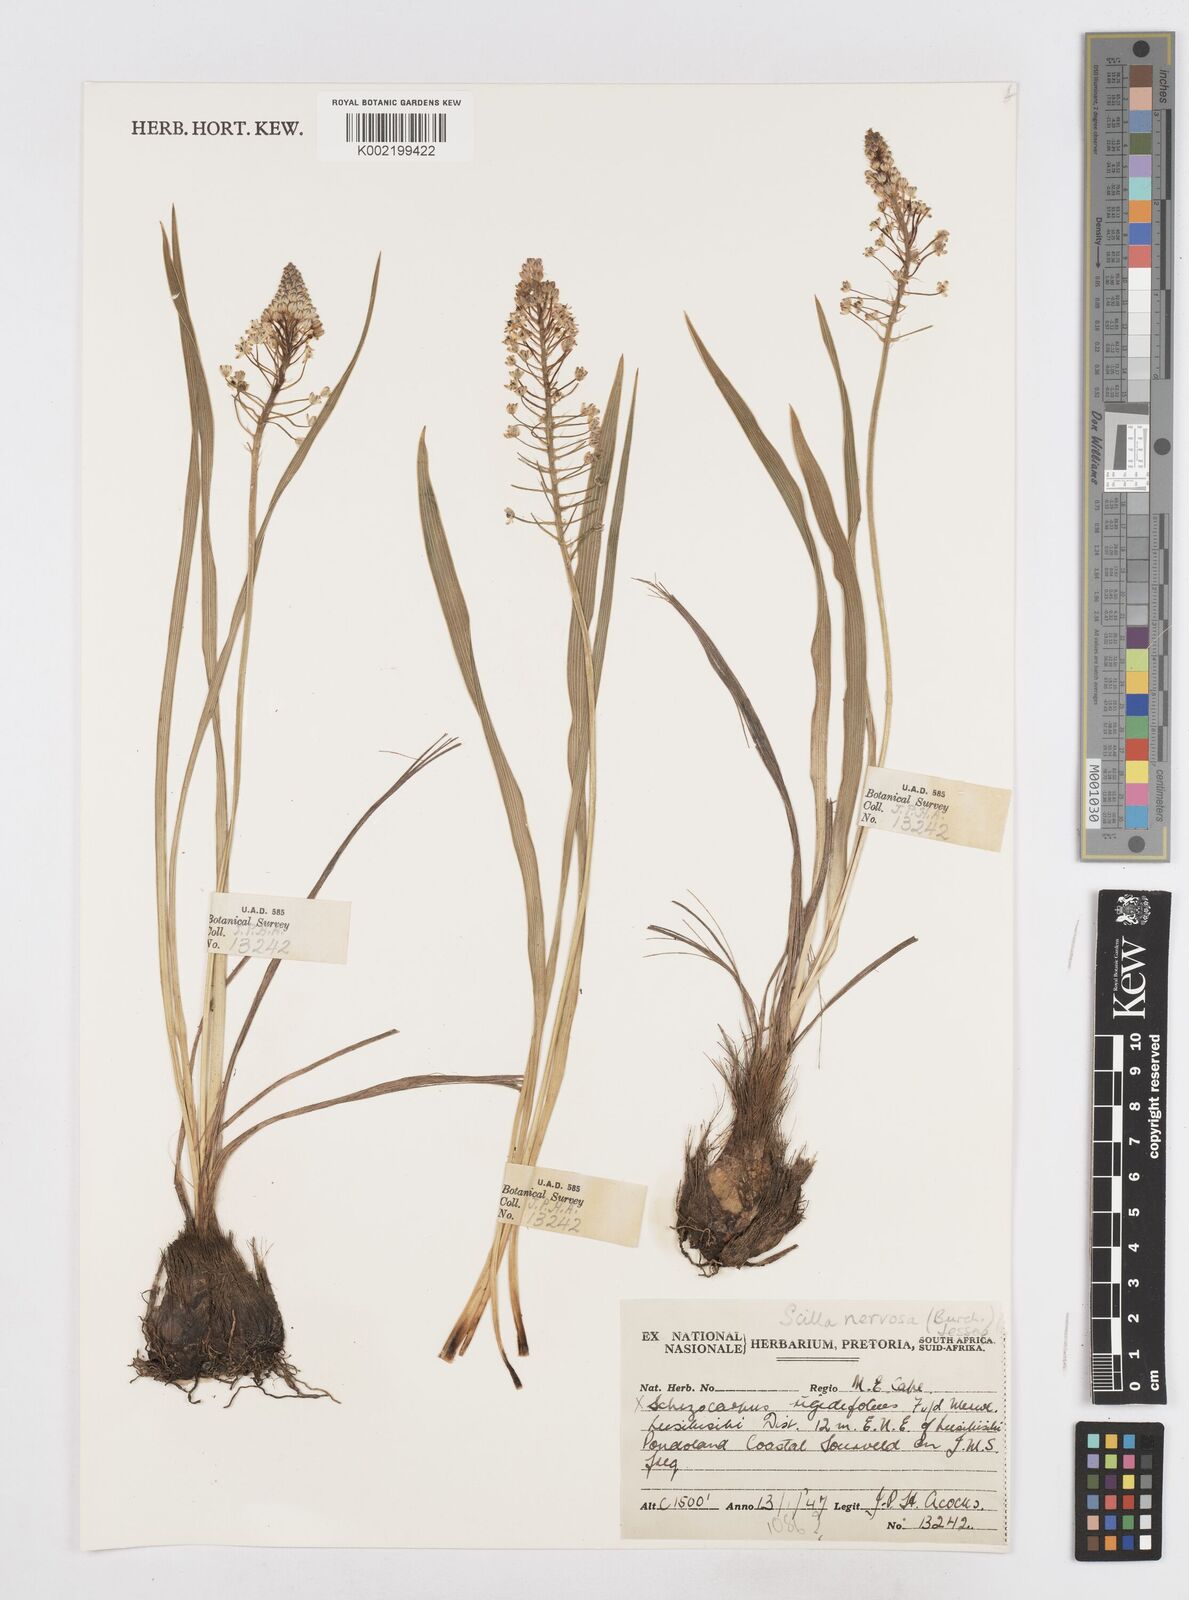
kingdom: Plantae
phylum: Tracheophyta
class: Liliopsida
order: Asparagales
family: Asparagaceae
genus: Schizocarphus
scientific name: Schizocarphus nervosus
